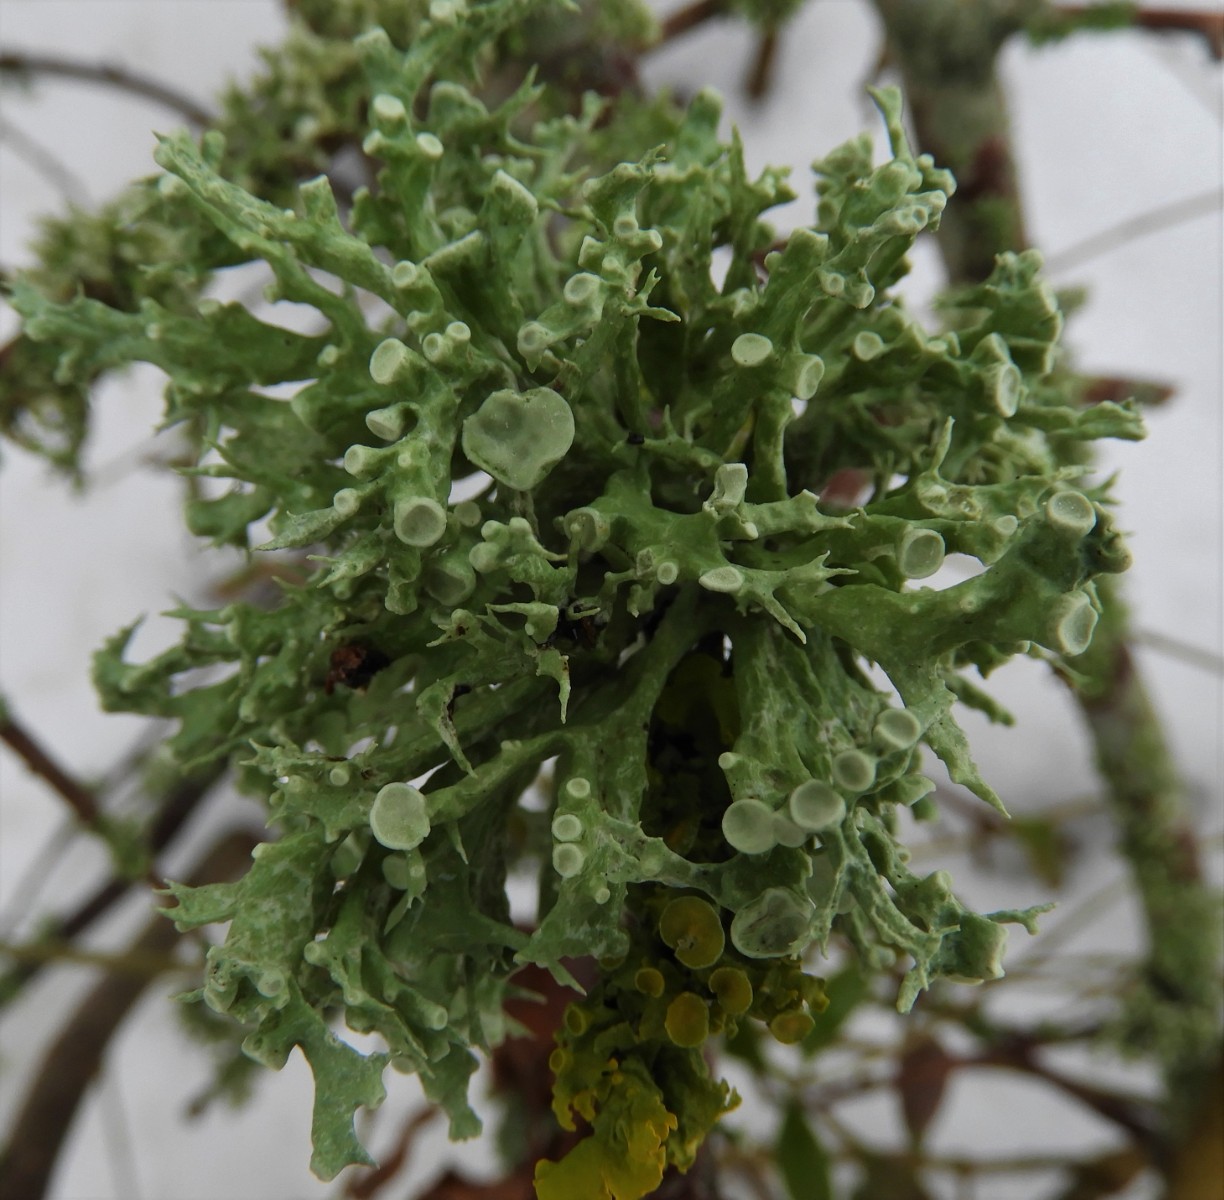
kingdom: Fungi
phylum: Ascomycota
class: Lecanoromycetes
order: Lecanorales
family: Ramalinaceae
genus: Ramalina
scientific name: Ramalina fastigiata
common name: tue-grenlav
